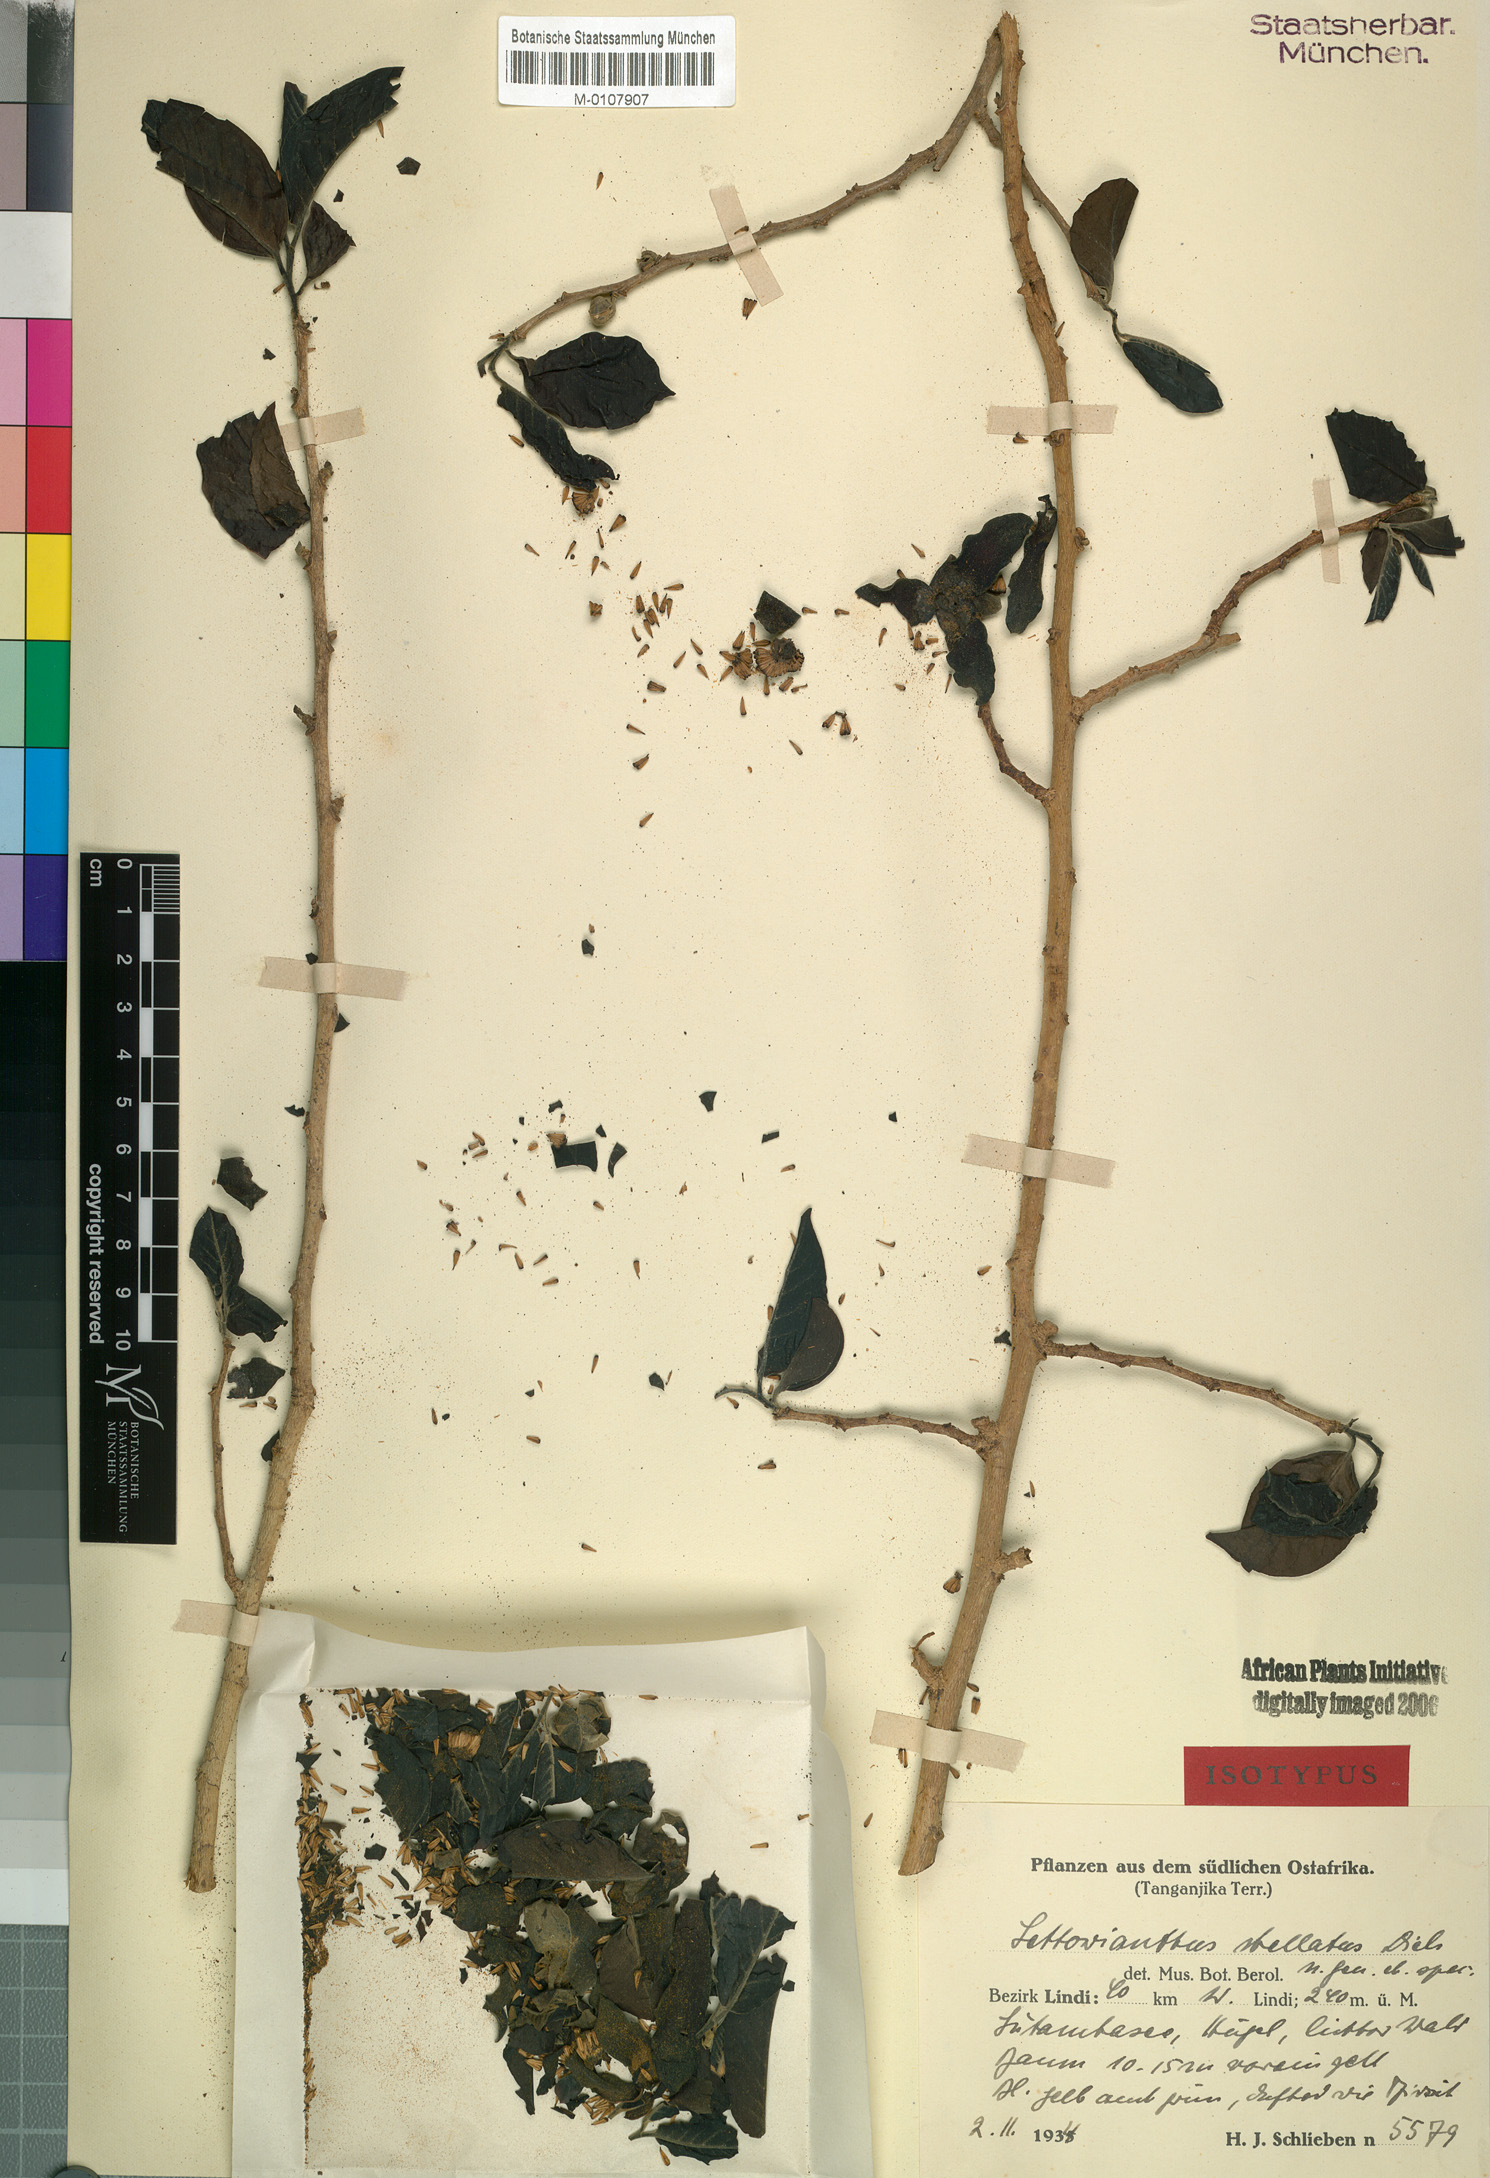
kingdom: Plantae
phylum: Tracheophyta
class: Magnoliopsida
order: Magnoliales
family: Annonaceae
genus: Lettowianthus
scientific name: Lettowianthus stellatus
